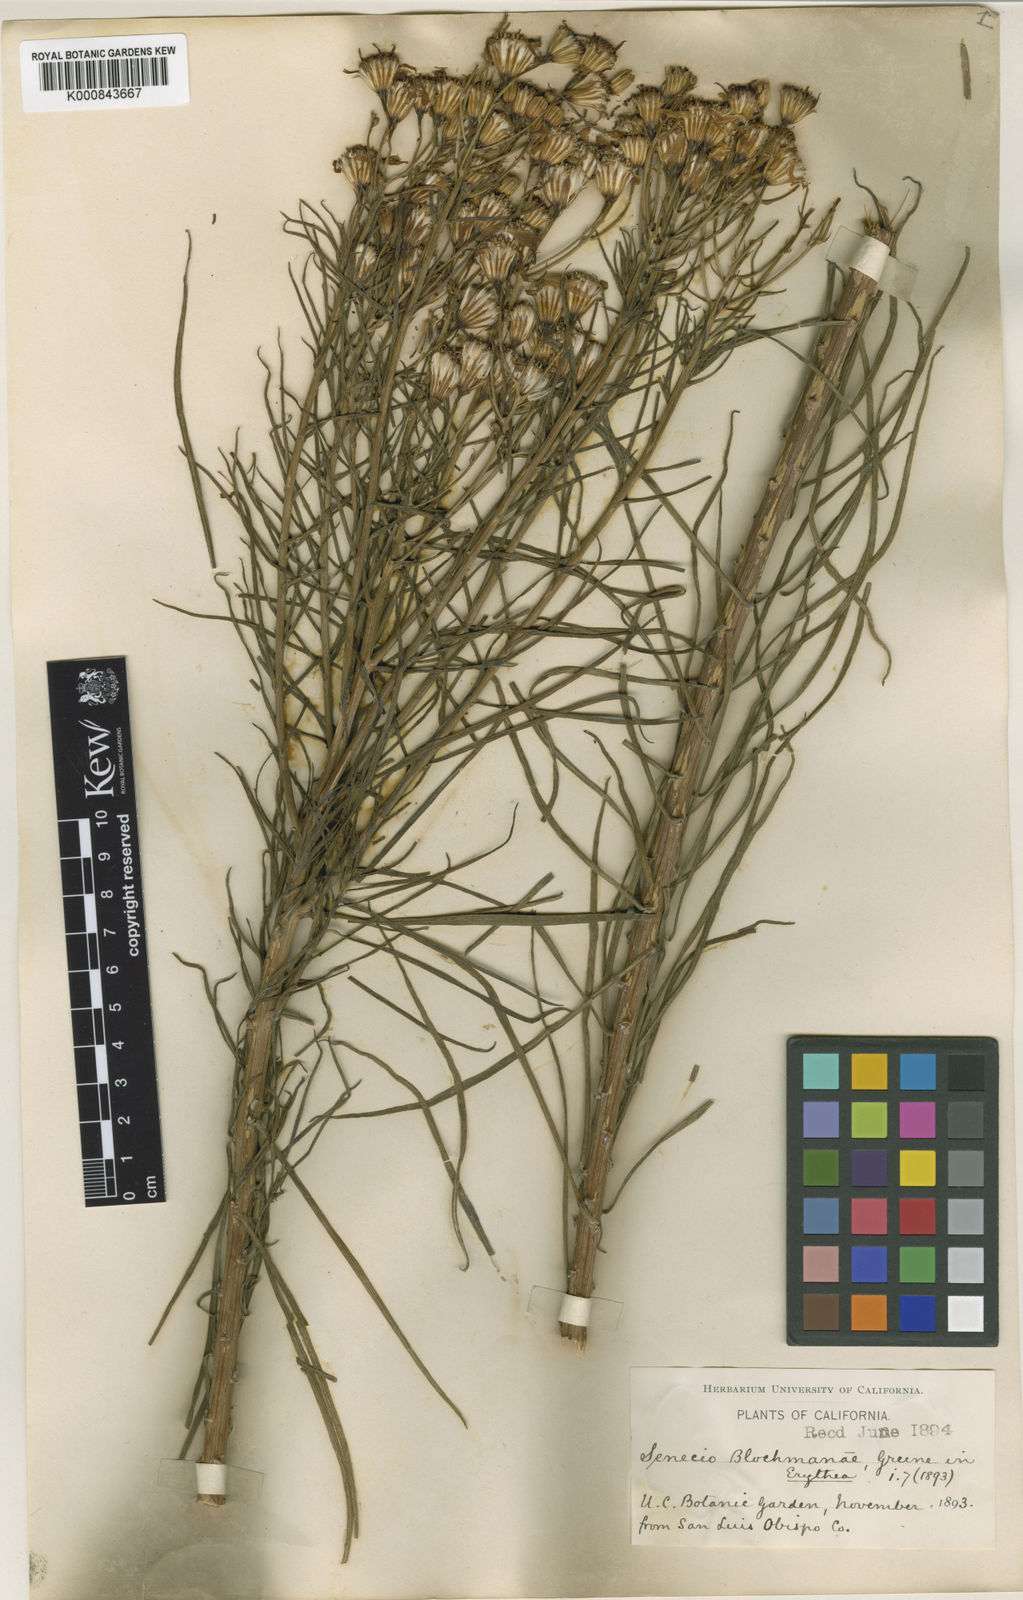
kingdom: Plantae
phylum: Tracheophyta
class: Magnoliopsida
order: Asterales
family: Asteraceae
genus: Senecio
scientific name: Senecio blochmaniae
